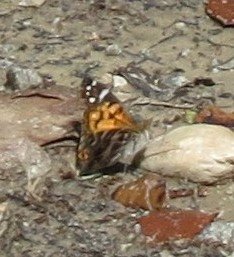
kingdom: Animalia
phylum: Arthropoda
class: Insecta
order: Lepidoptera
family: Nymphalidae
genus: Vanessa
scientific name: Vanessa virginiensis
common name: American Lady
